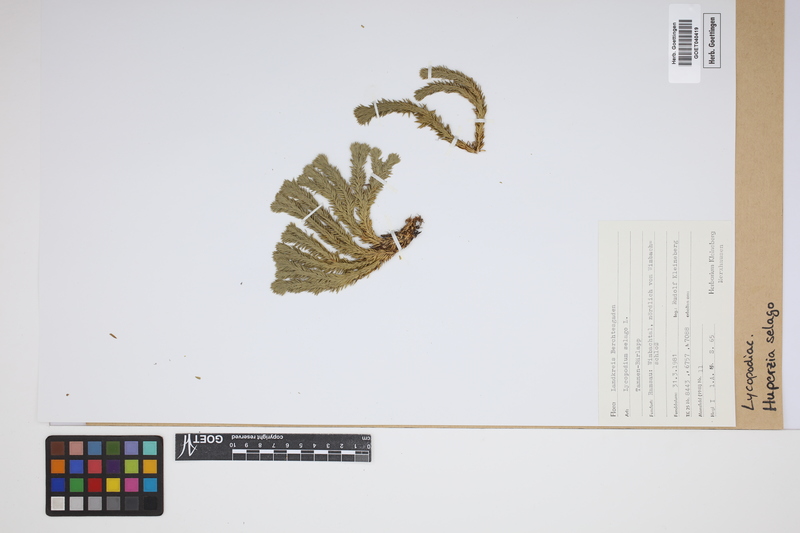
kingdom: Plantae
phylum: Tracheophyta
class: Lycopodiopsida
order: Lycopodiales
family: Lycopodiaceae
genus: Huperzia
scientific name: Huperzia selago
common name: Northern firmoss
